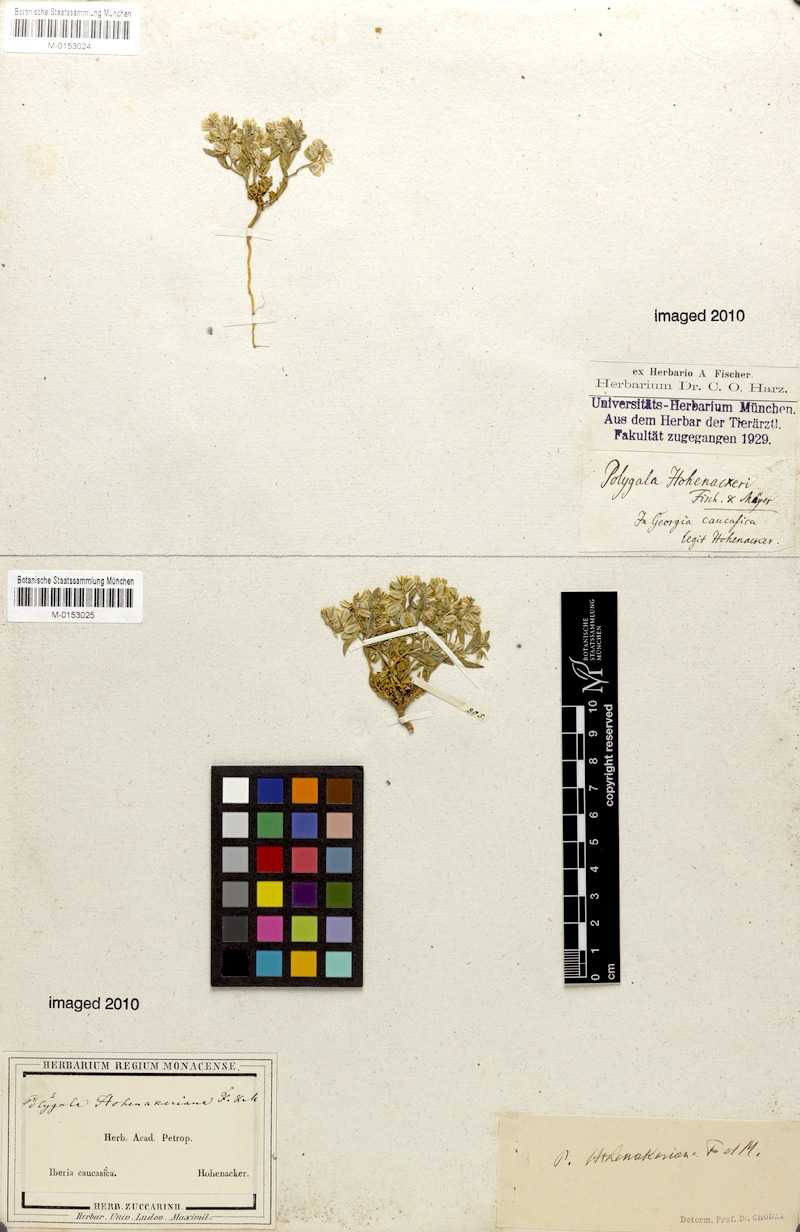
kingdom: Plantae
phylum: Tracheophyta
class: Magnoliopsida
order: Fabales
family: Polygalaceae
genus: Polygala
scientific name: Polygala hohenackeriana
